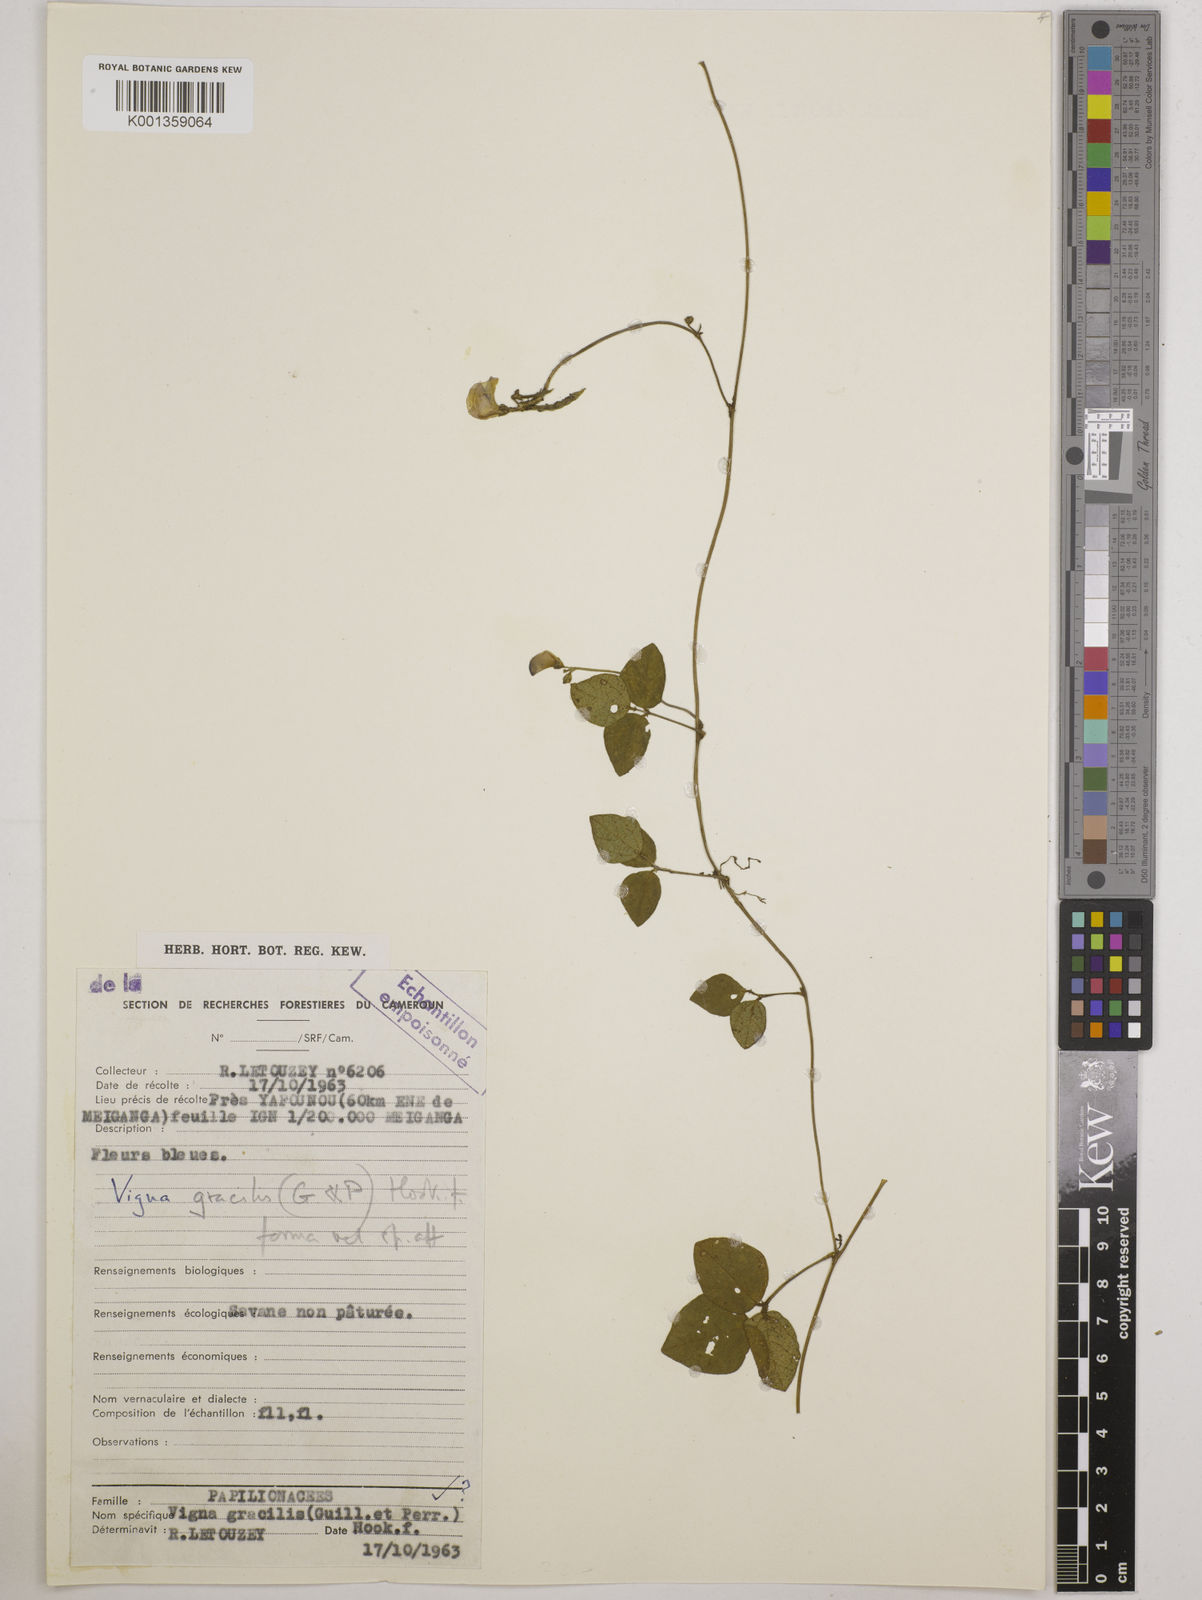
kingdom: Plantae
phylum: Tracheophyta
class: Magnoliopsida
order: Fabales
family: Fabaceae
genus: Vigna
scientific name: Vigna gracilis
